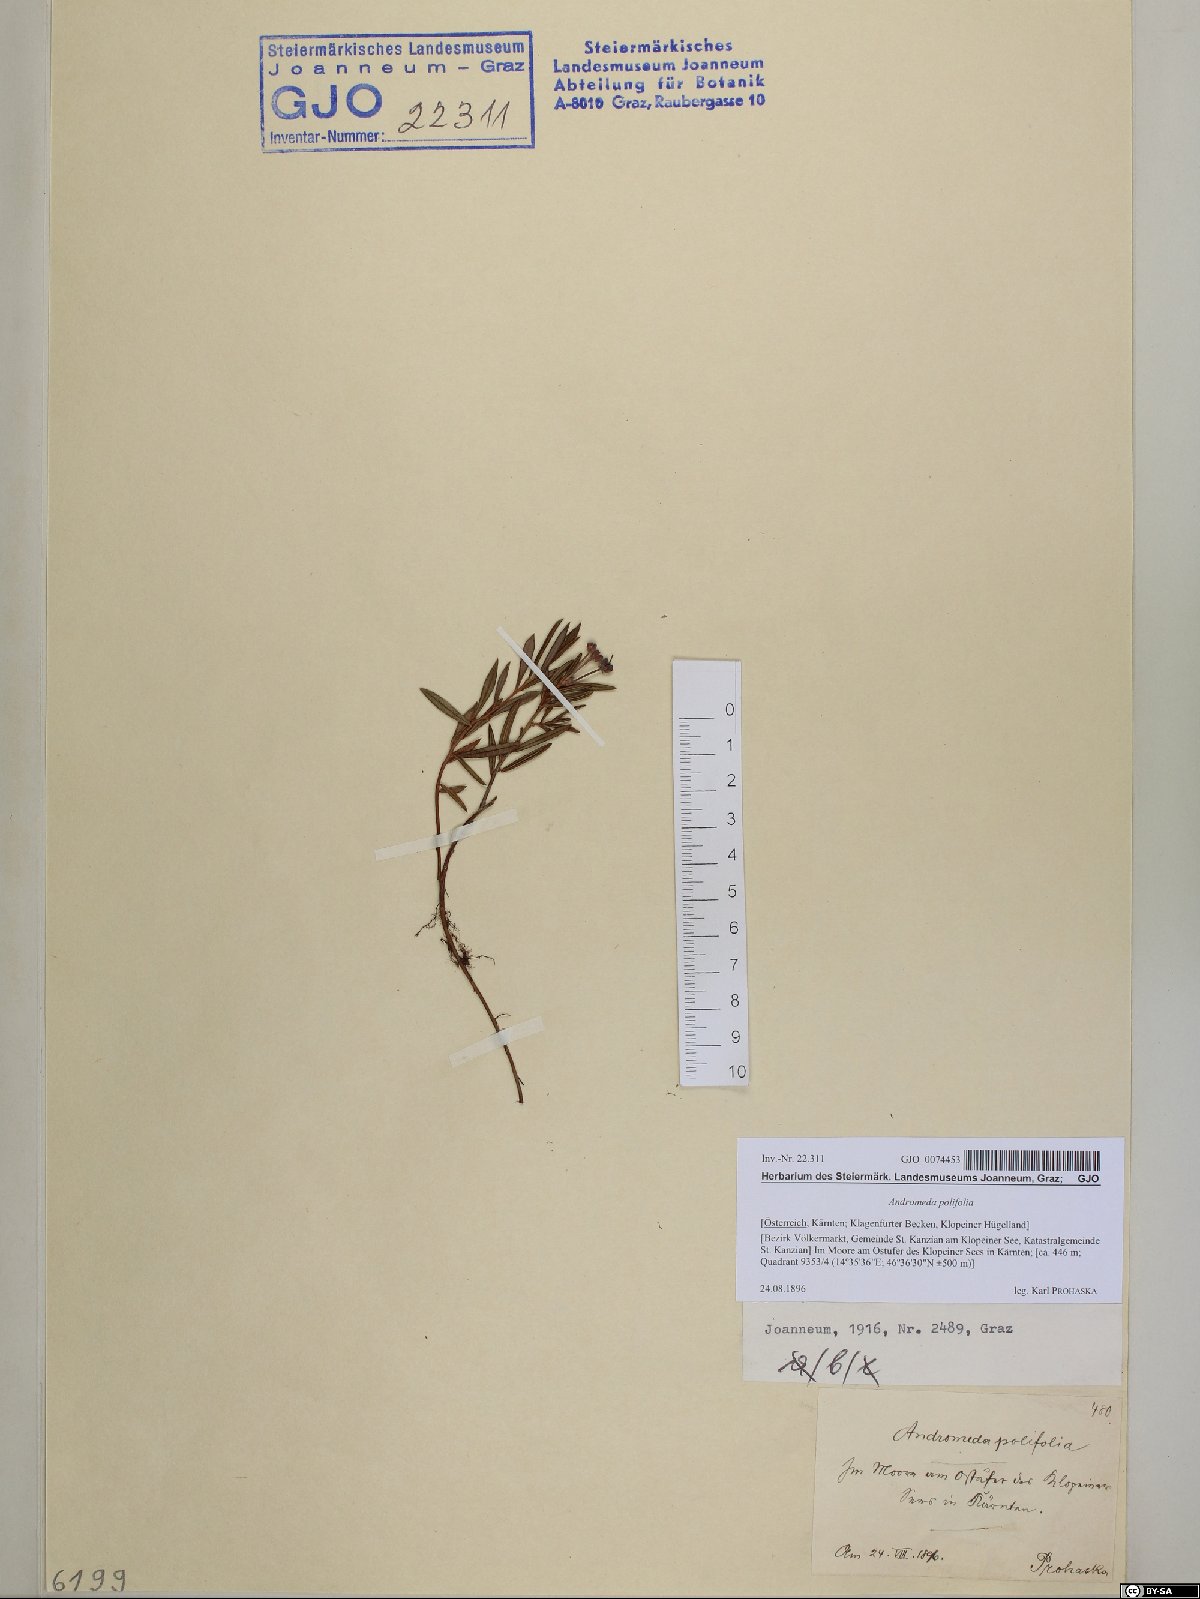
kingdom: Plantae
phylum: Tracheophyta
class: Magnoliopsida
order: Ericales
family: Ericaceae
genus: Andromeda
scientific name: Andromeda polifolia
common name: Bog-rosemary
